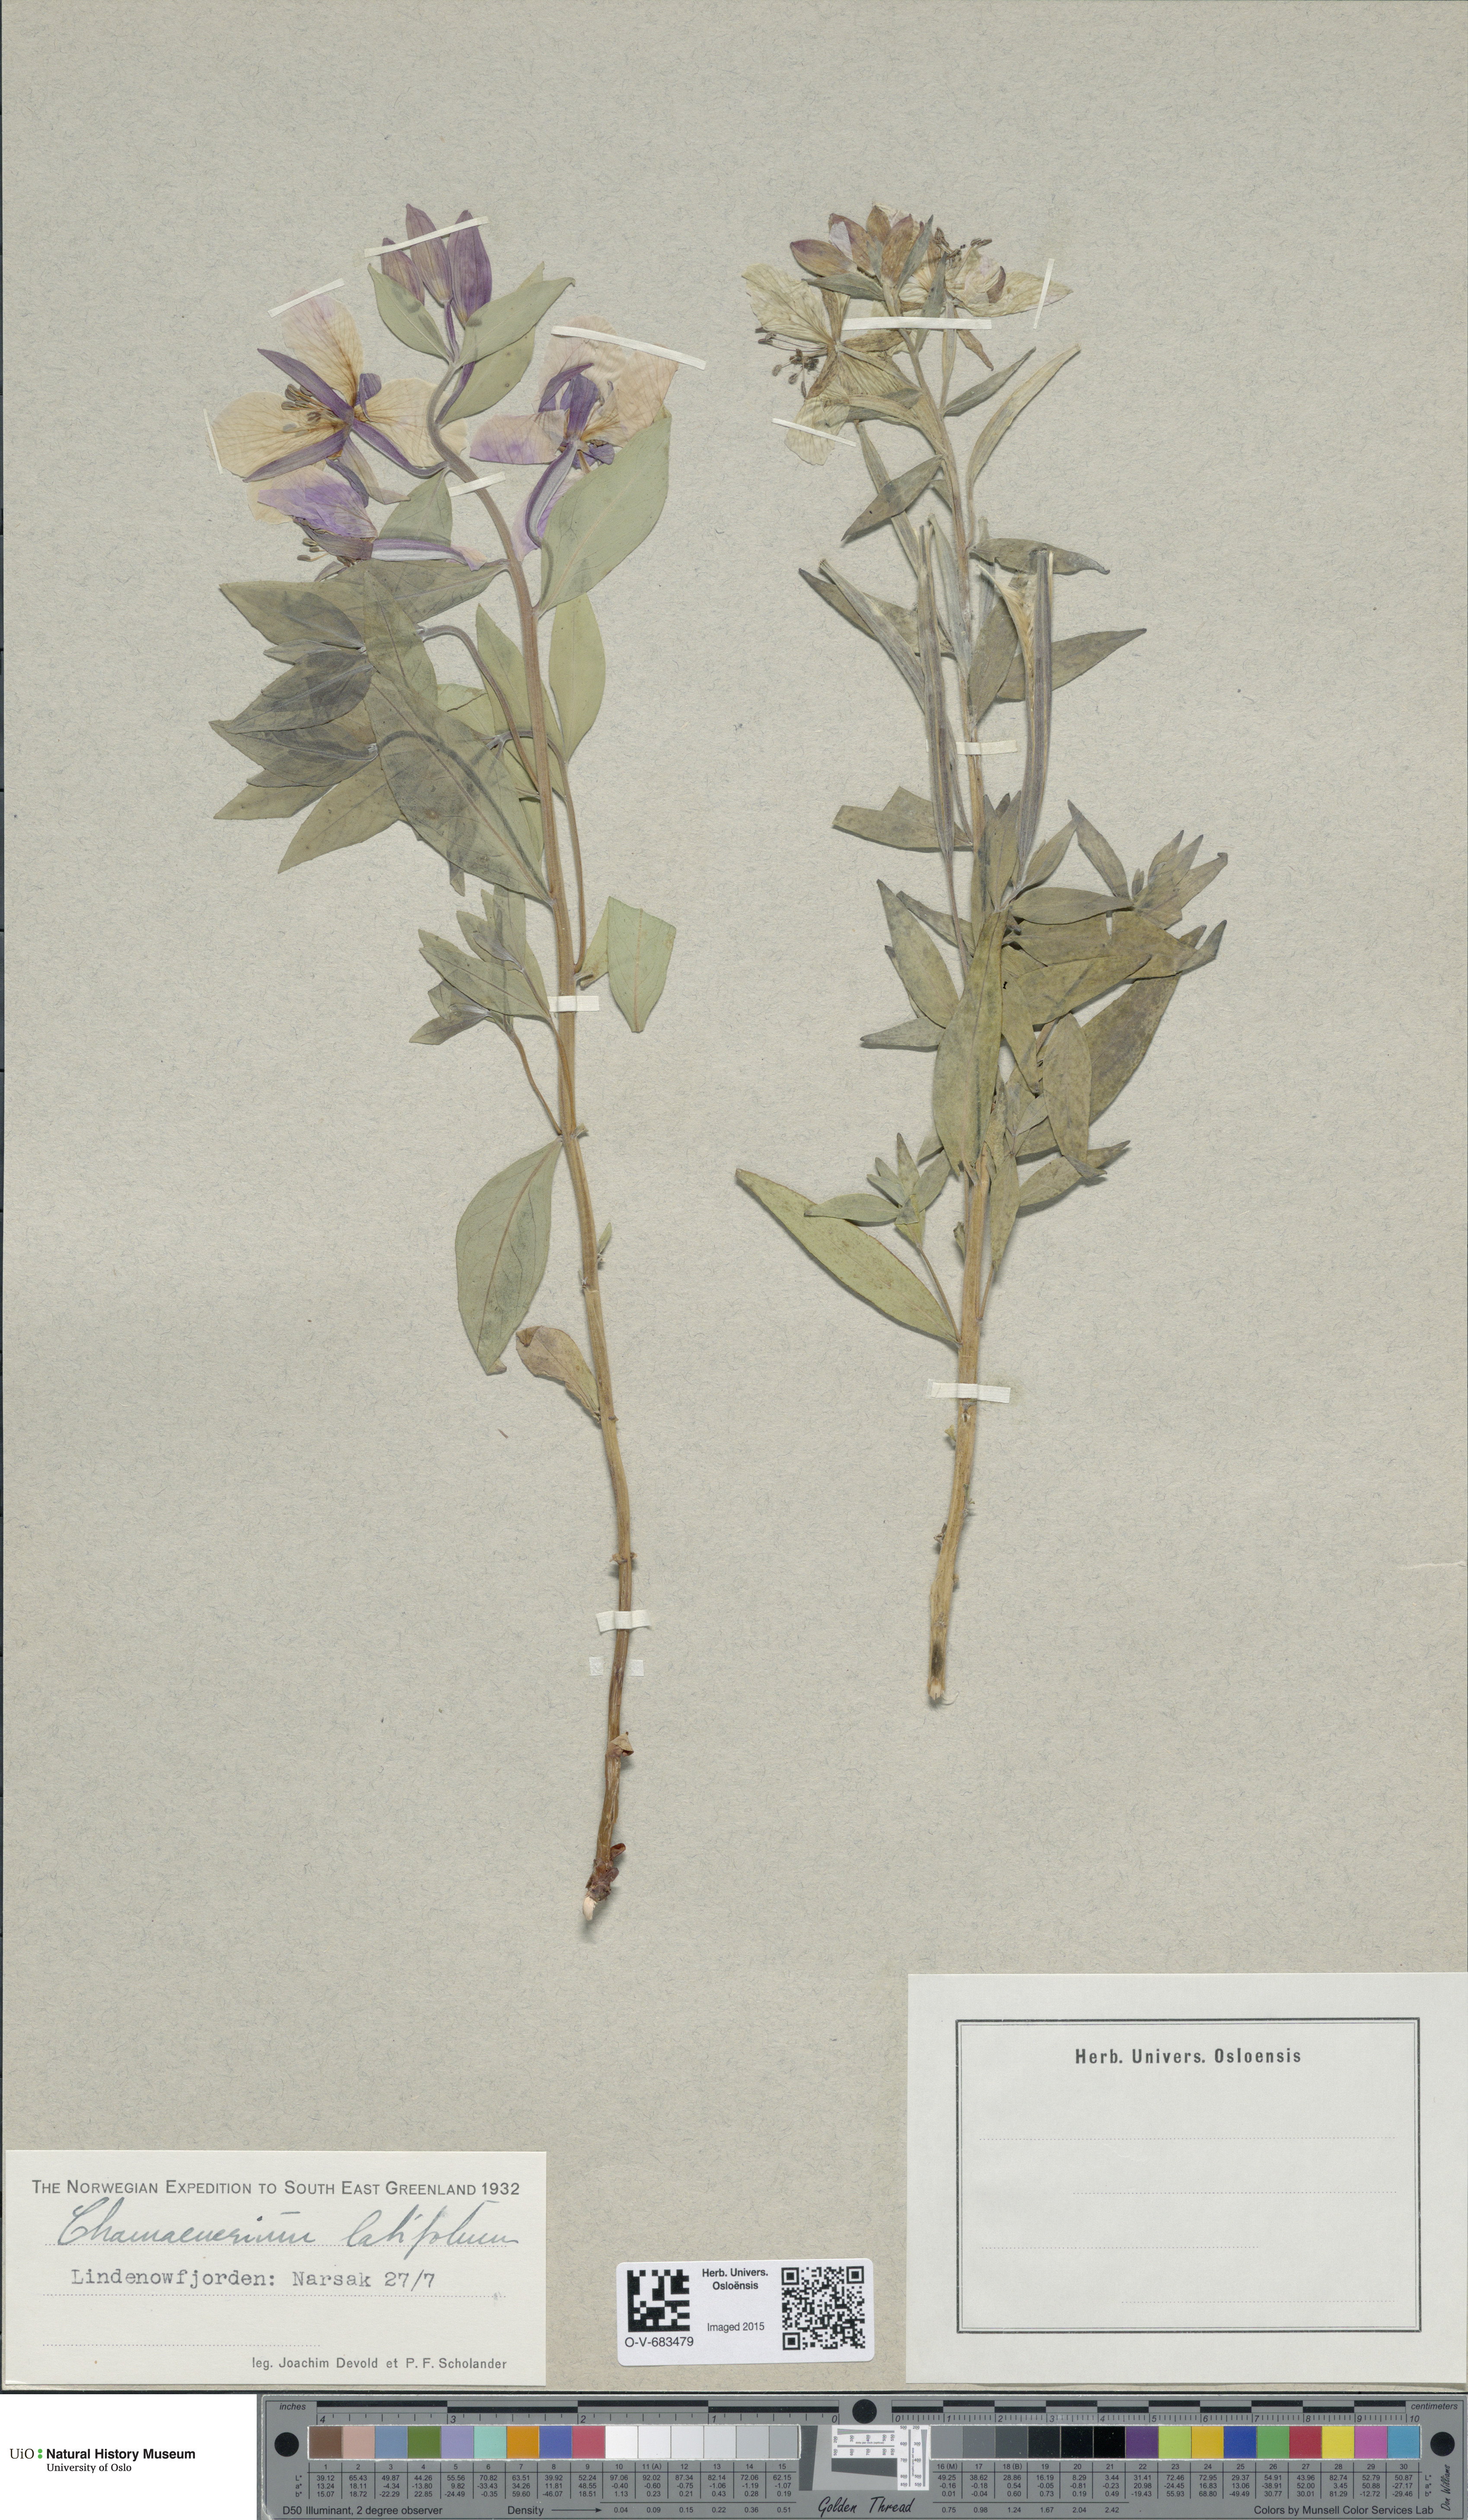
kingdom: Plantae
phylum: Tracheophyta
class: Magnoliopsida
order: Myrtales
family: Onagraceae
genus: Chamaenerion
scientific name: Chamaenerion latifolium
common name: Dwarf fireweed
